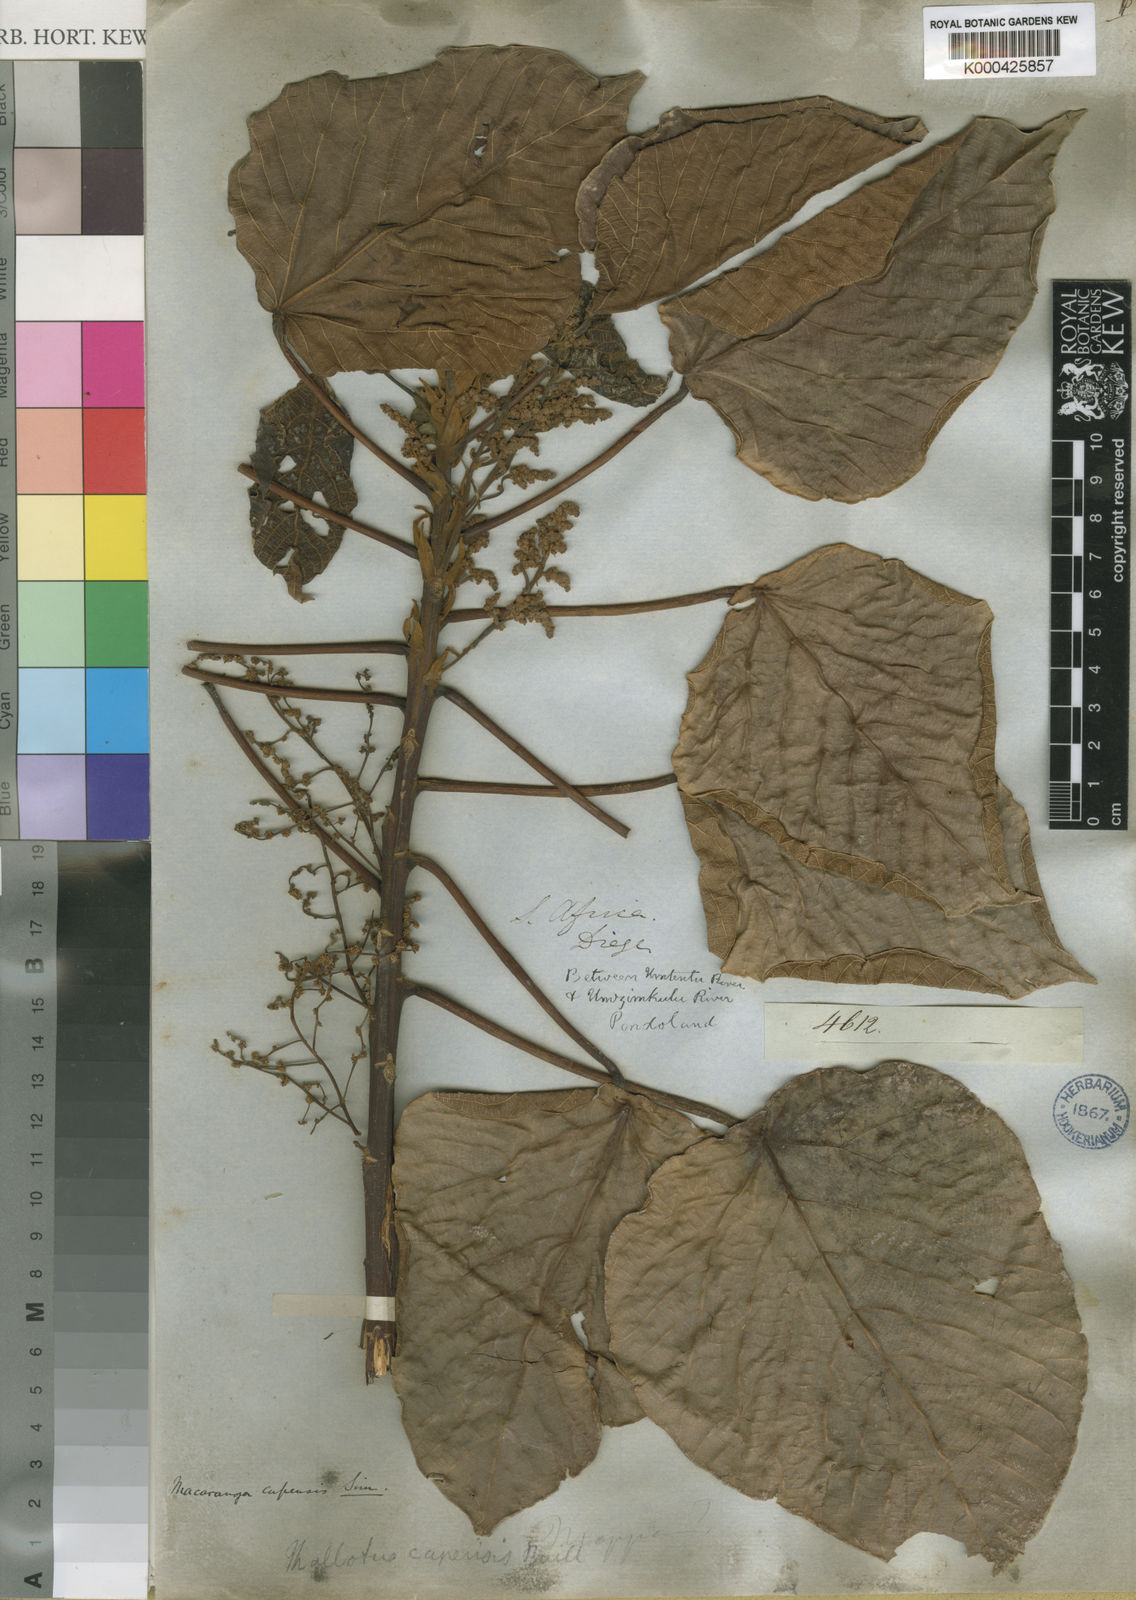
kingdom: Plantae
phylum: Tracheophyta
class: Magnoliopsida
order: Malpighiales
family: Euphorbiaceae
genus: Macaranga
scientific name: Macaranga capensis
